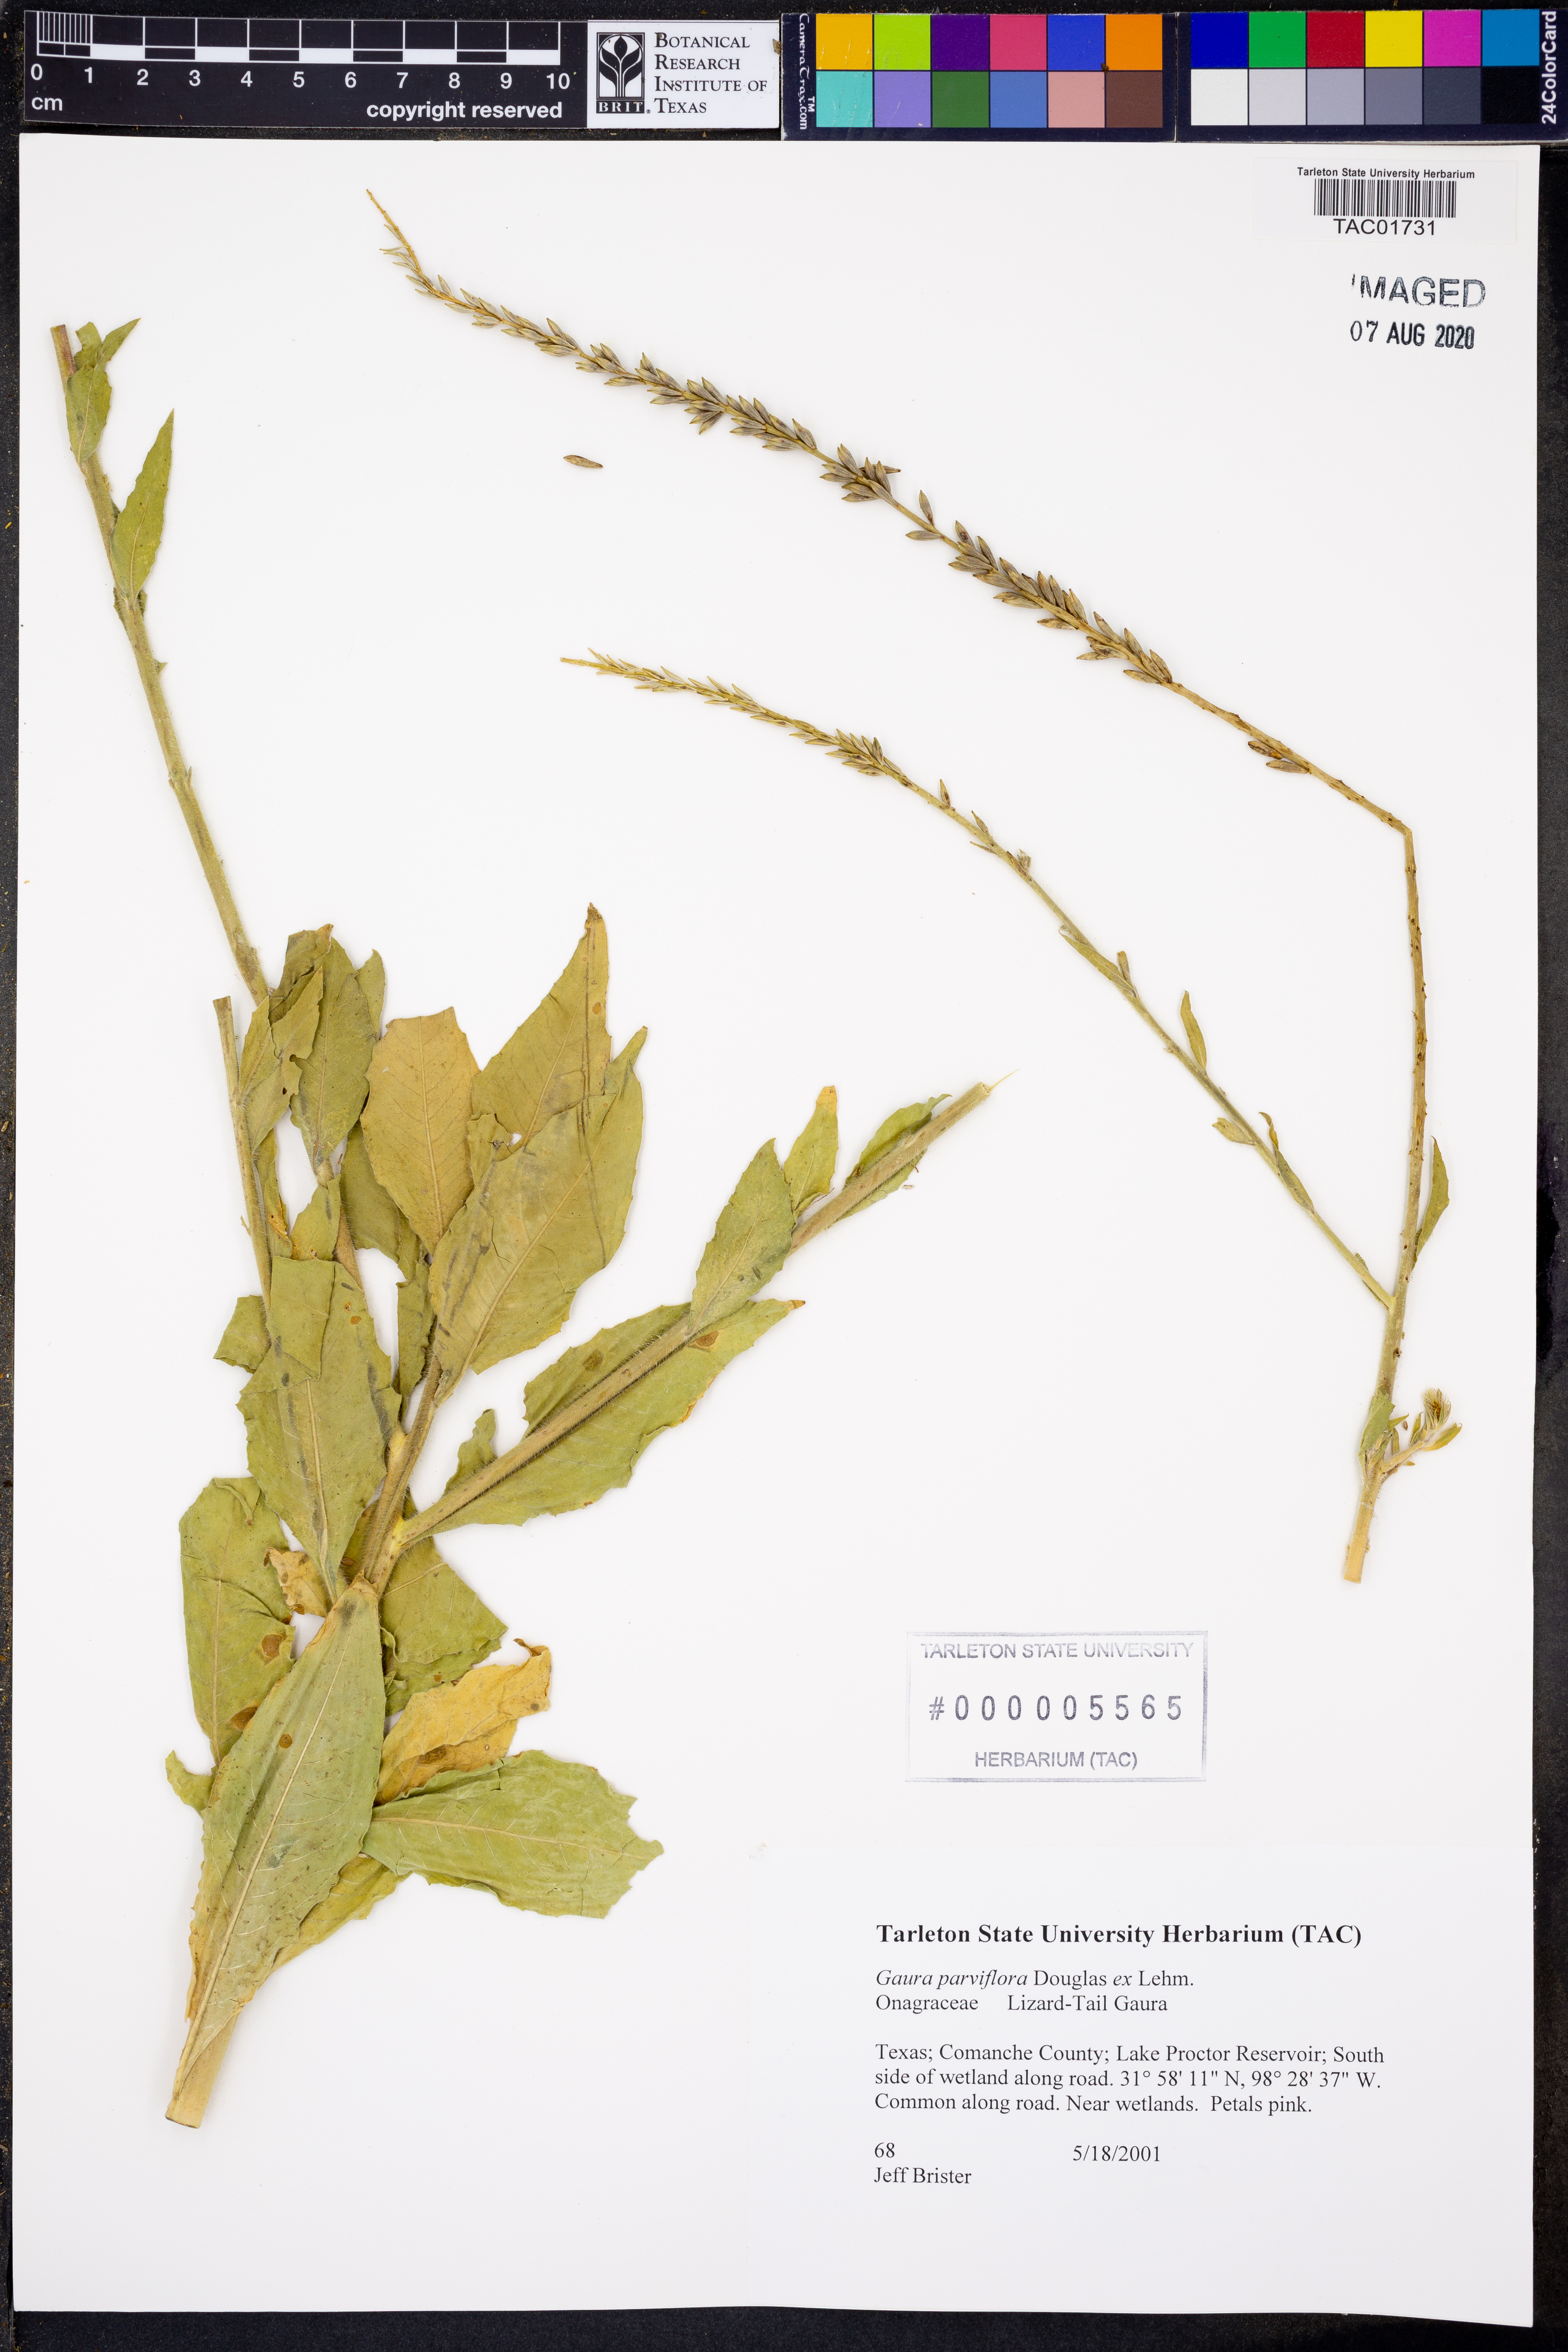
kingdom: Plantae
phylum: Tracheophyta
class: Magnoliopsida
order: Myrtales
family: Onagraceae
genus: Oenothera
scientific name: Oenothera curtiflora
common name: Velvetweed
